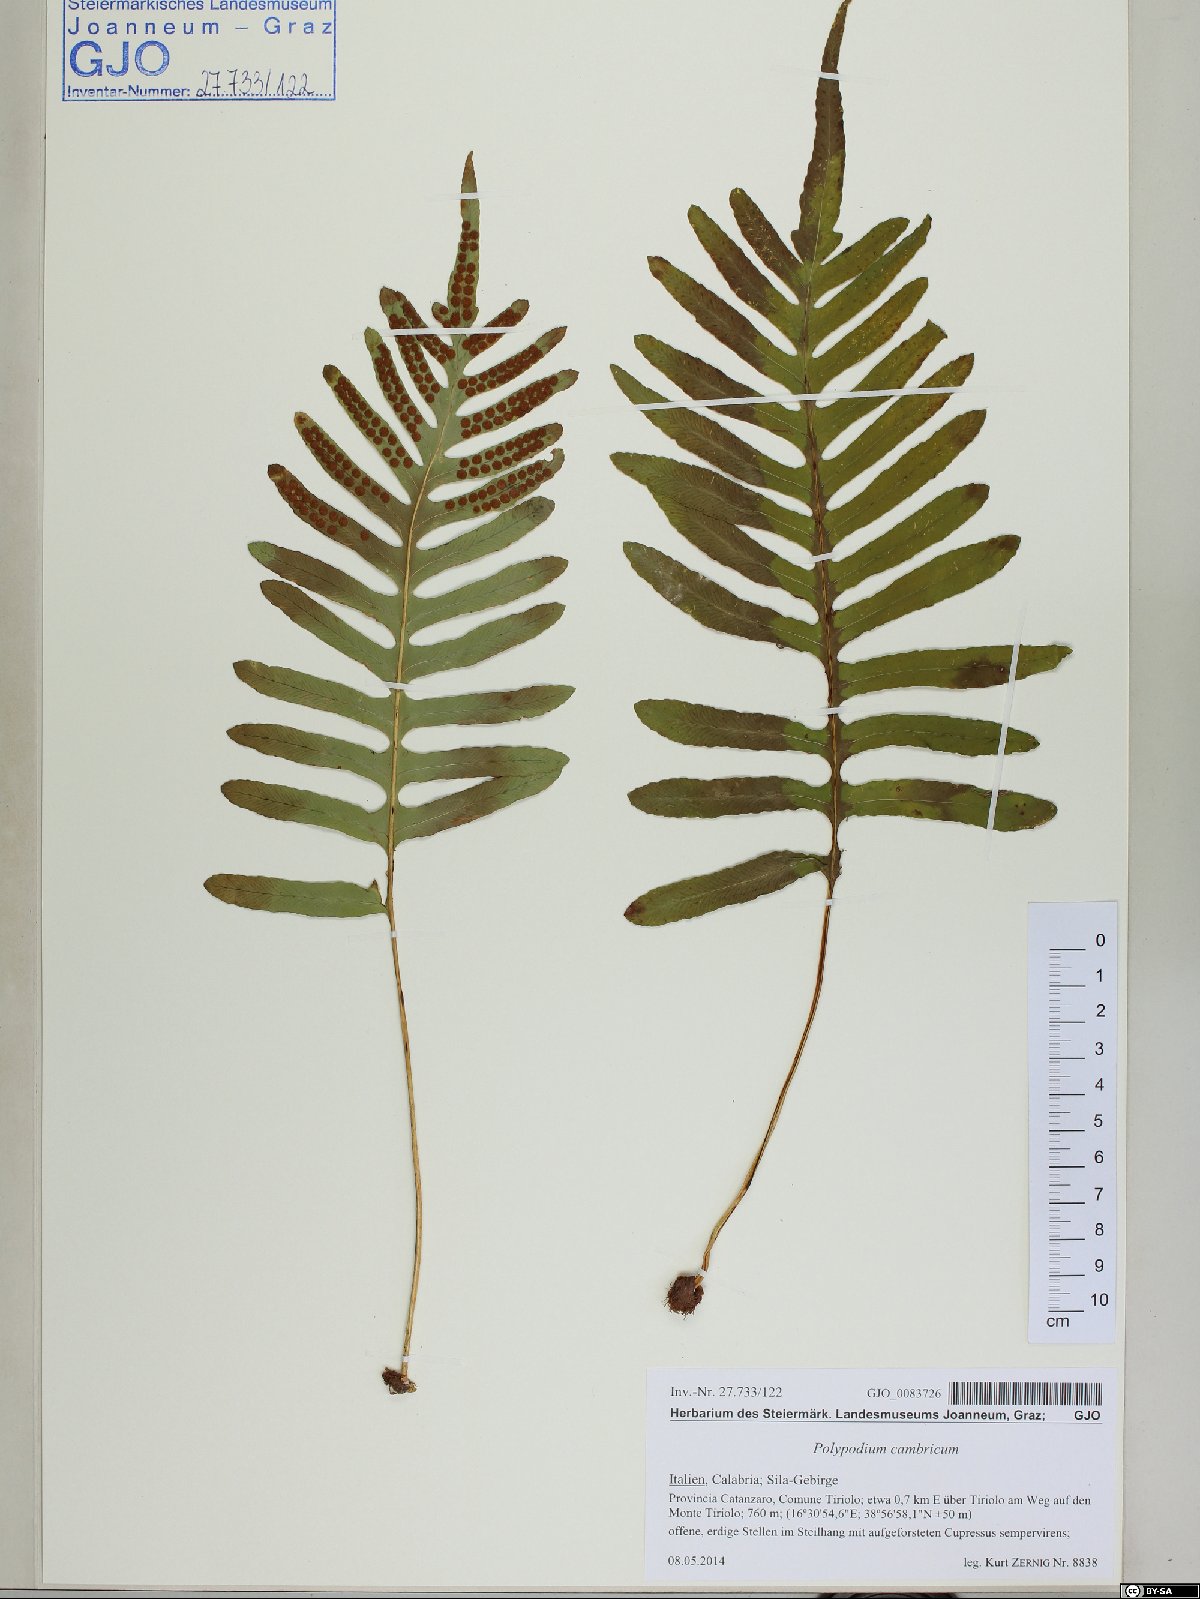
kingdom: Plantae
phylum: Tracheophyta
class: Polypodiopsida
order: Polypodiales
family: Polypodiaceae
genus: Polypodium
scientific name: Polypodium cambricum
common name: Southern polypody
